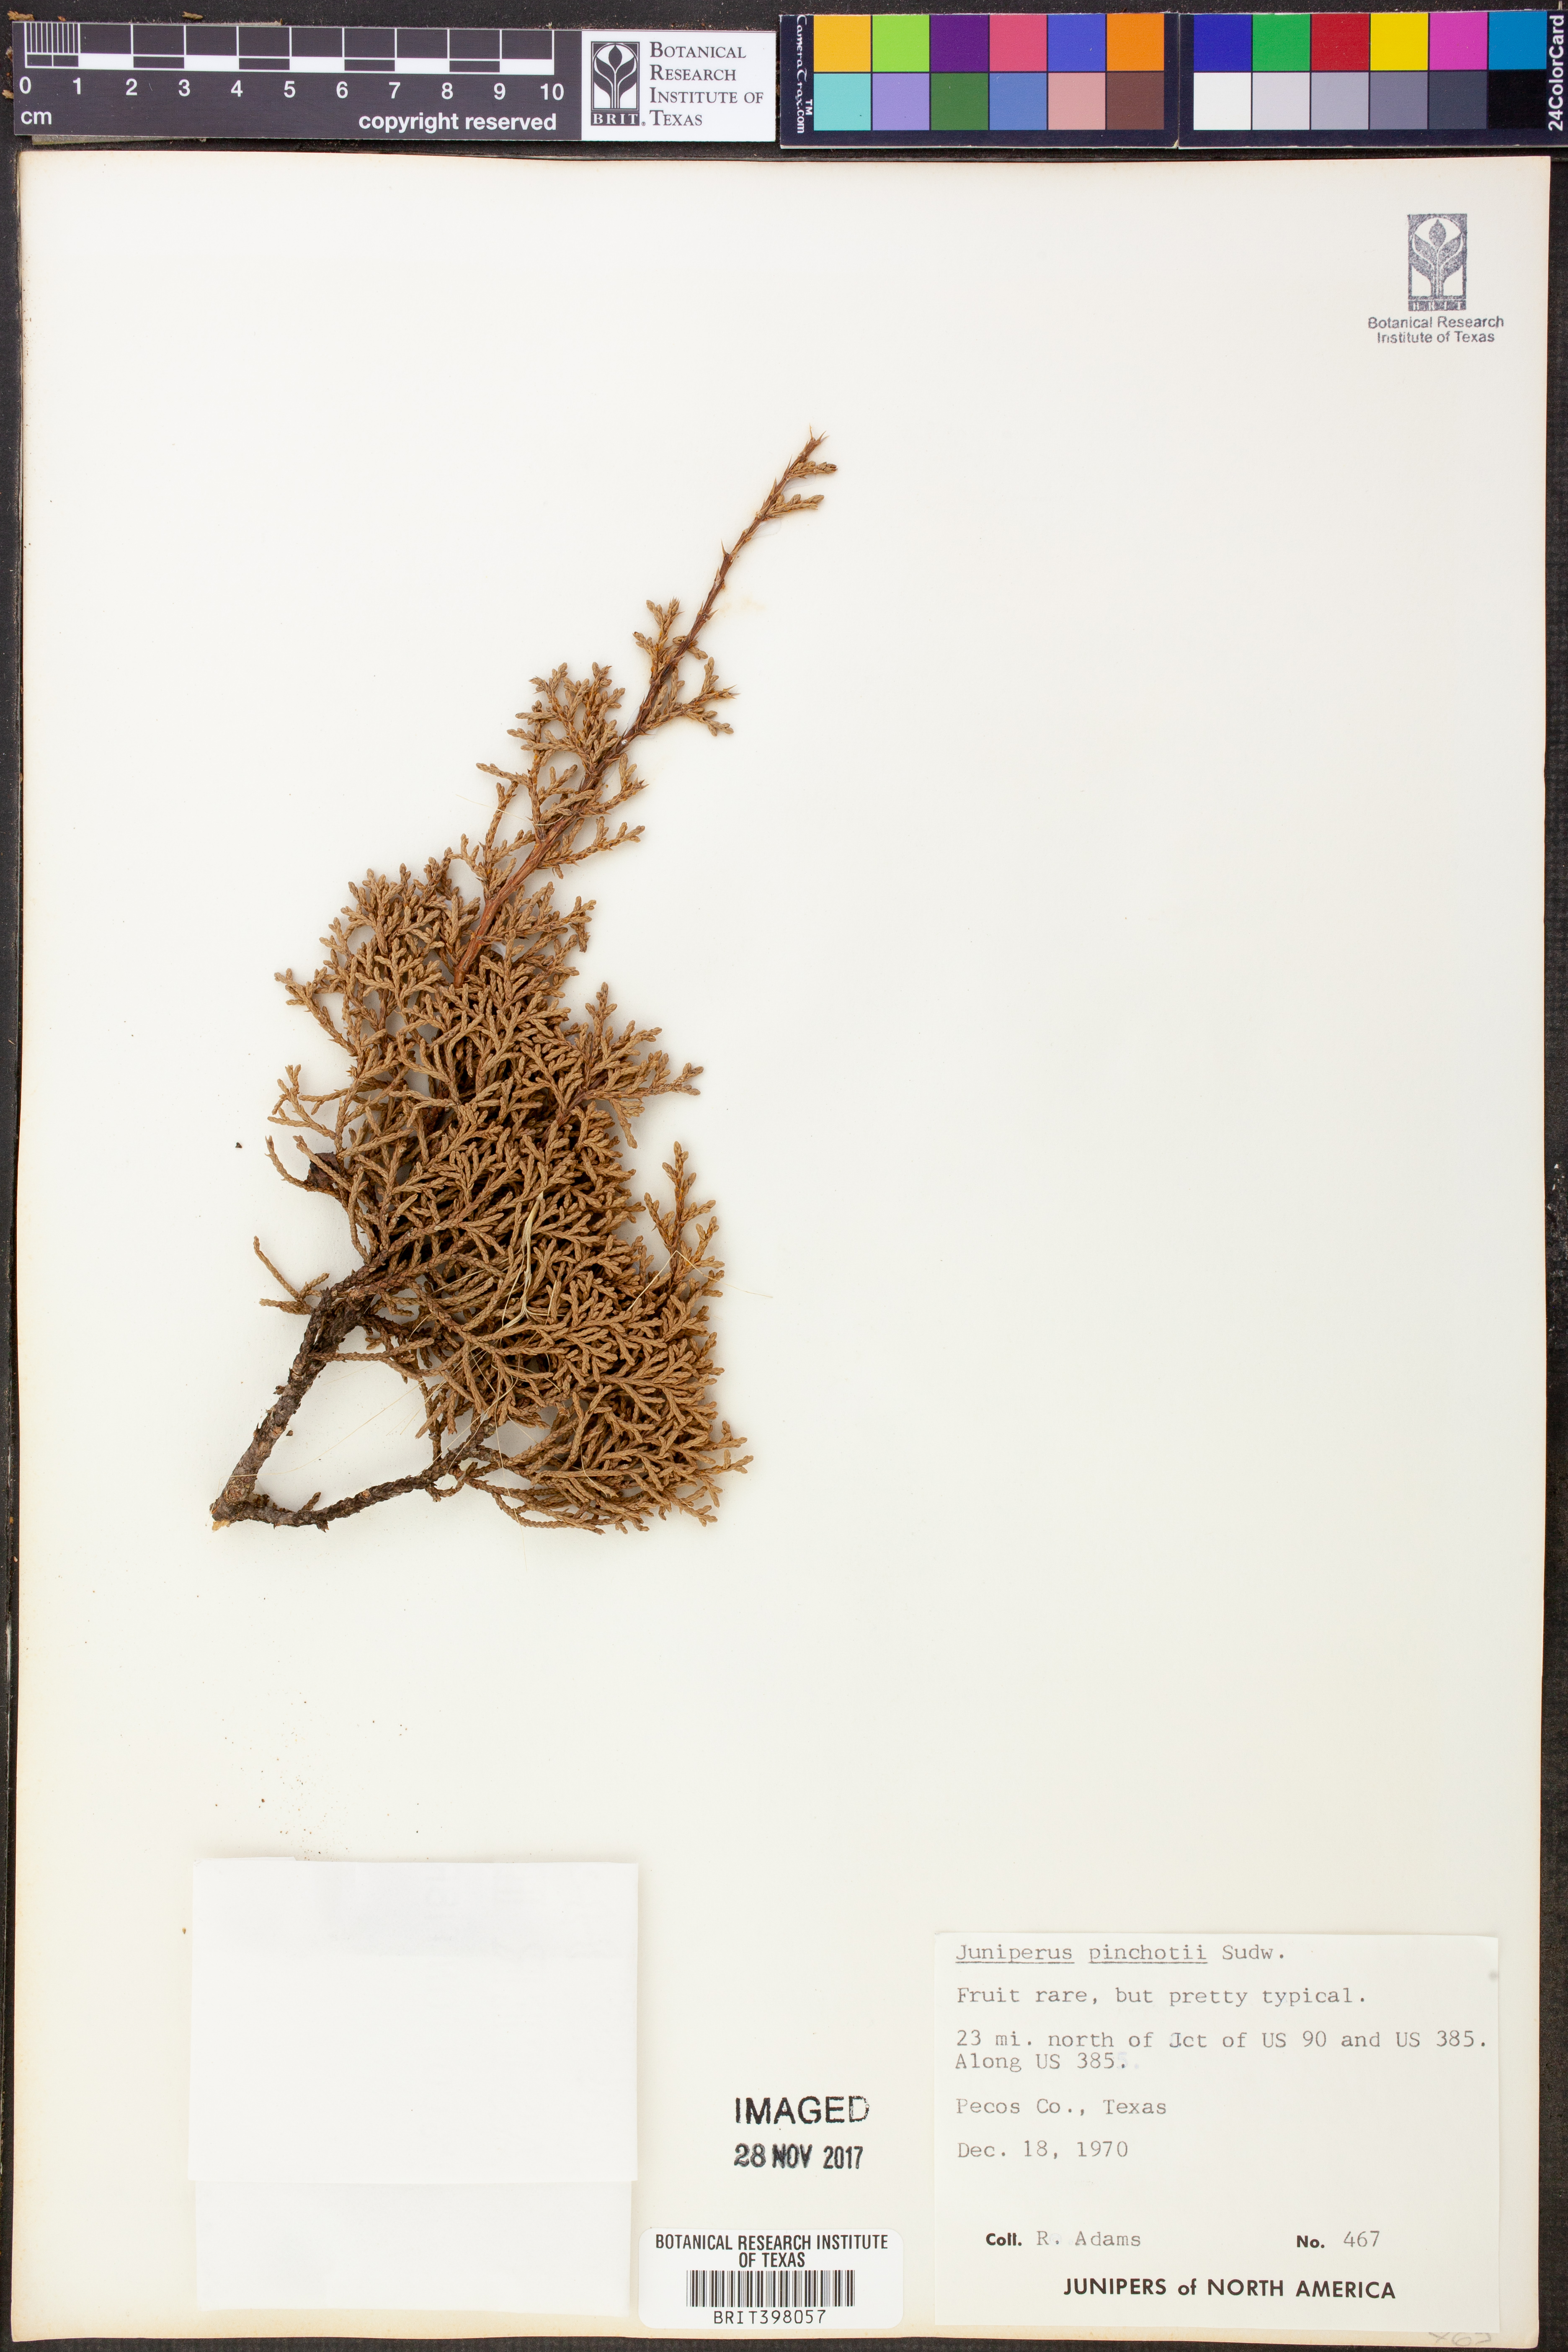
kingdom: Plantae
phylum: Tracheophyta
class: Pinopsida
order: Pinales
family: Cupressaceae
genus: Juniperus
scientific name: Juniperus pinchotii
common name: Pinchot juniper
